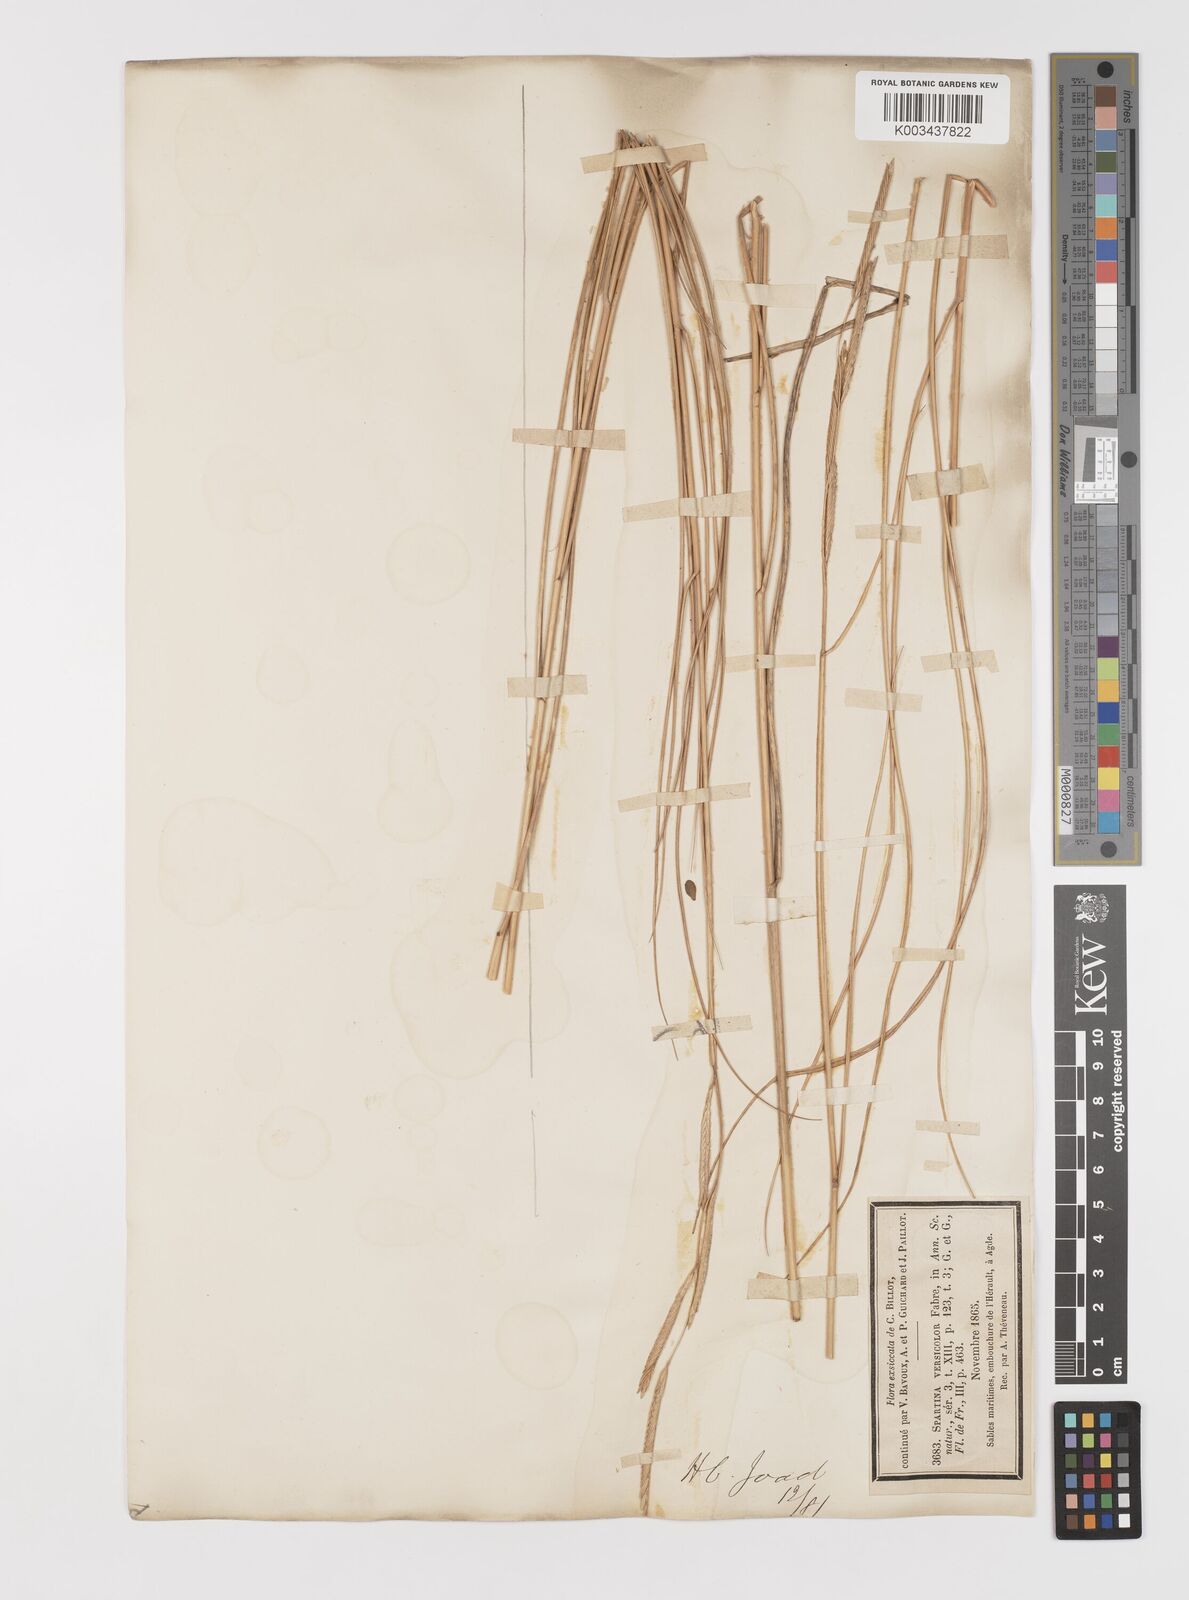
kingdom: Plantae
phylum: Tracheophyta
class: Liliopsida
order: Poales
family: Poaceae
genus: Sporobolus
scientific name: Sporobolus versicolor
